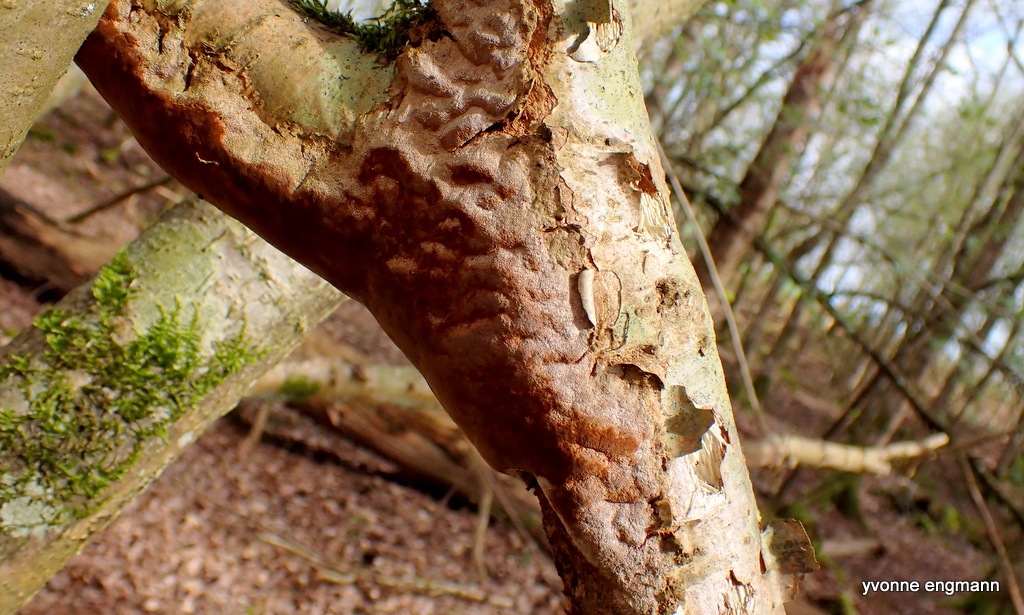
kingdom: Fungi
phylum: Basidiomycota
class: Agaricomycetes
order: Hymenochaetales
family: Hymenochaetaceae
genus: Fuscoporia
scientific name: Fuscoporia ferrea
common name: skorpe-ildporesvamp
